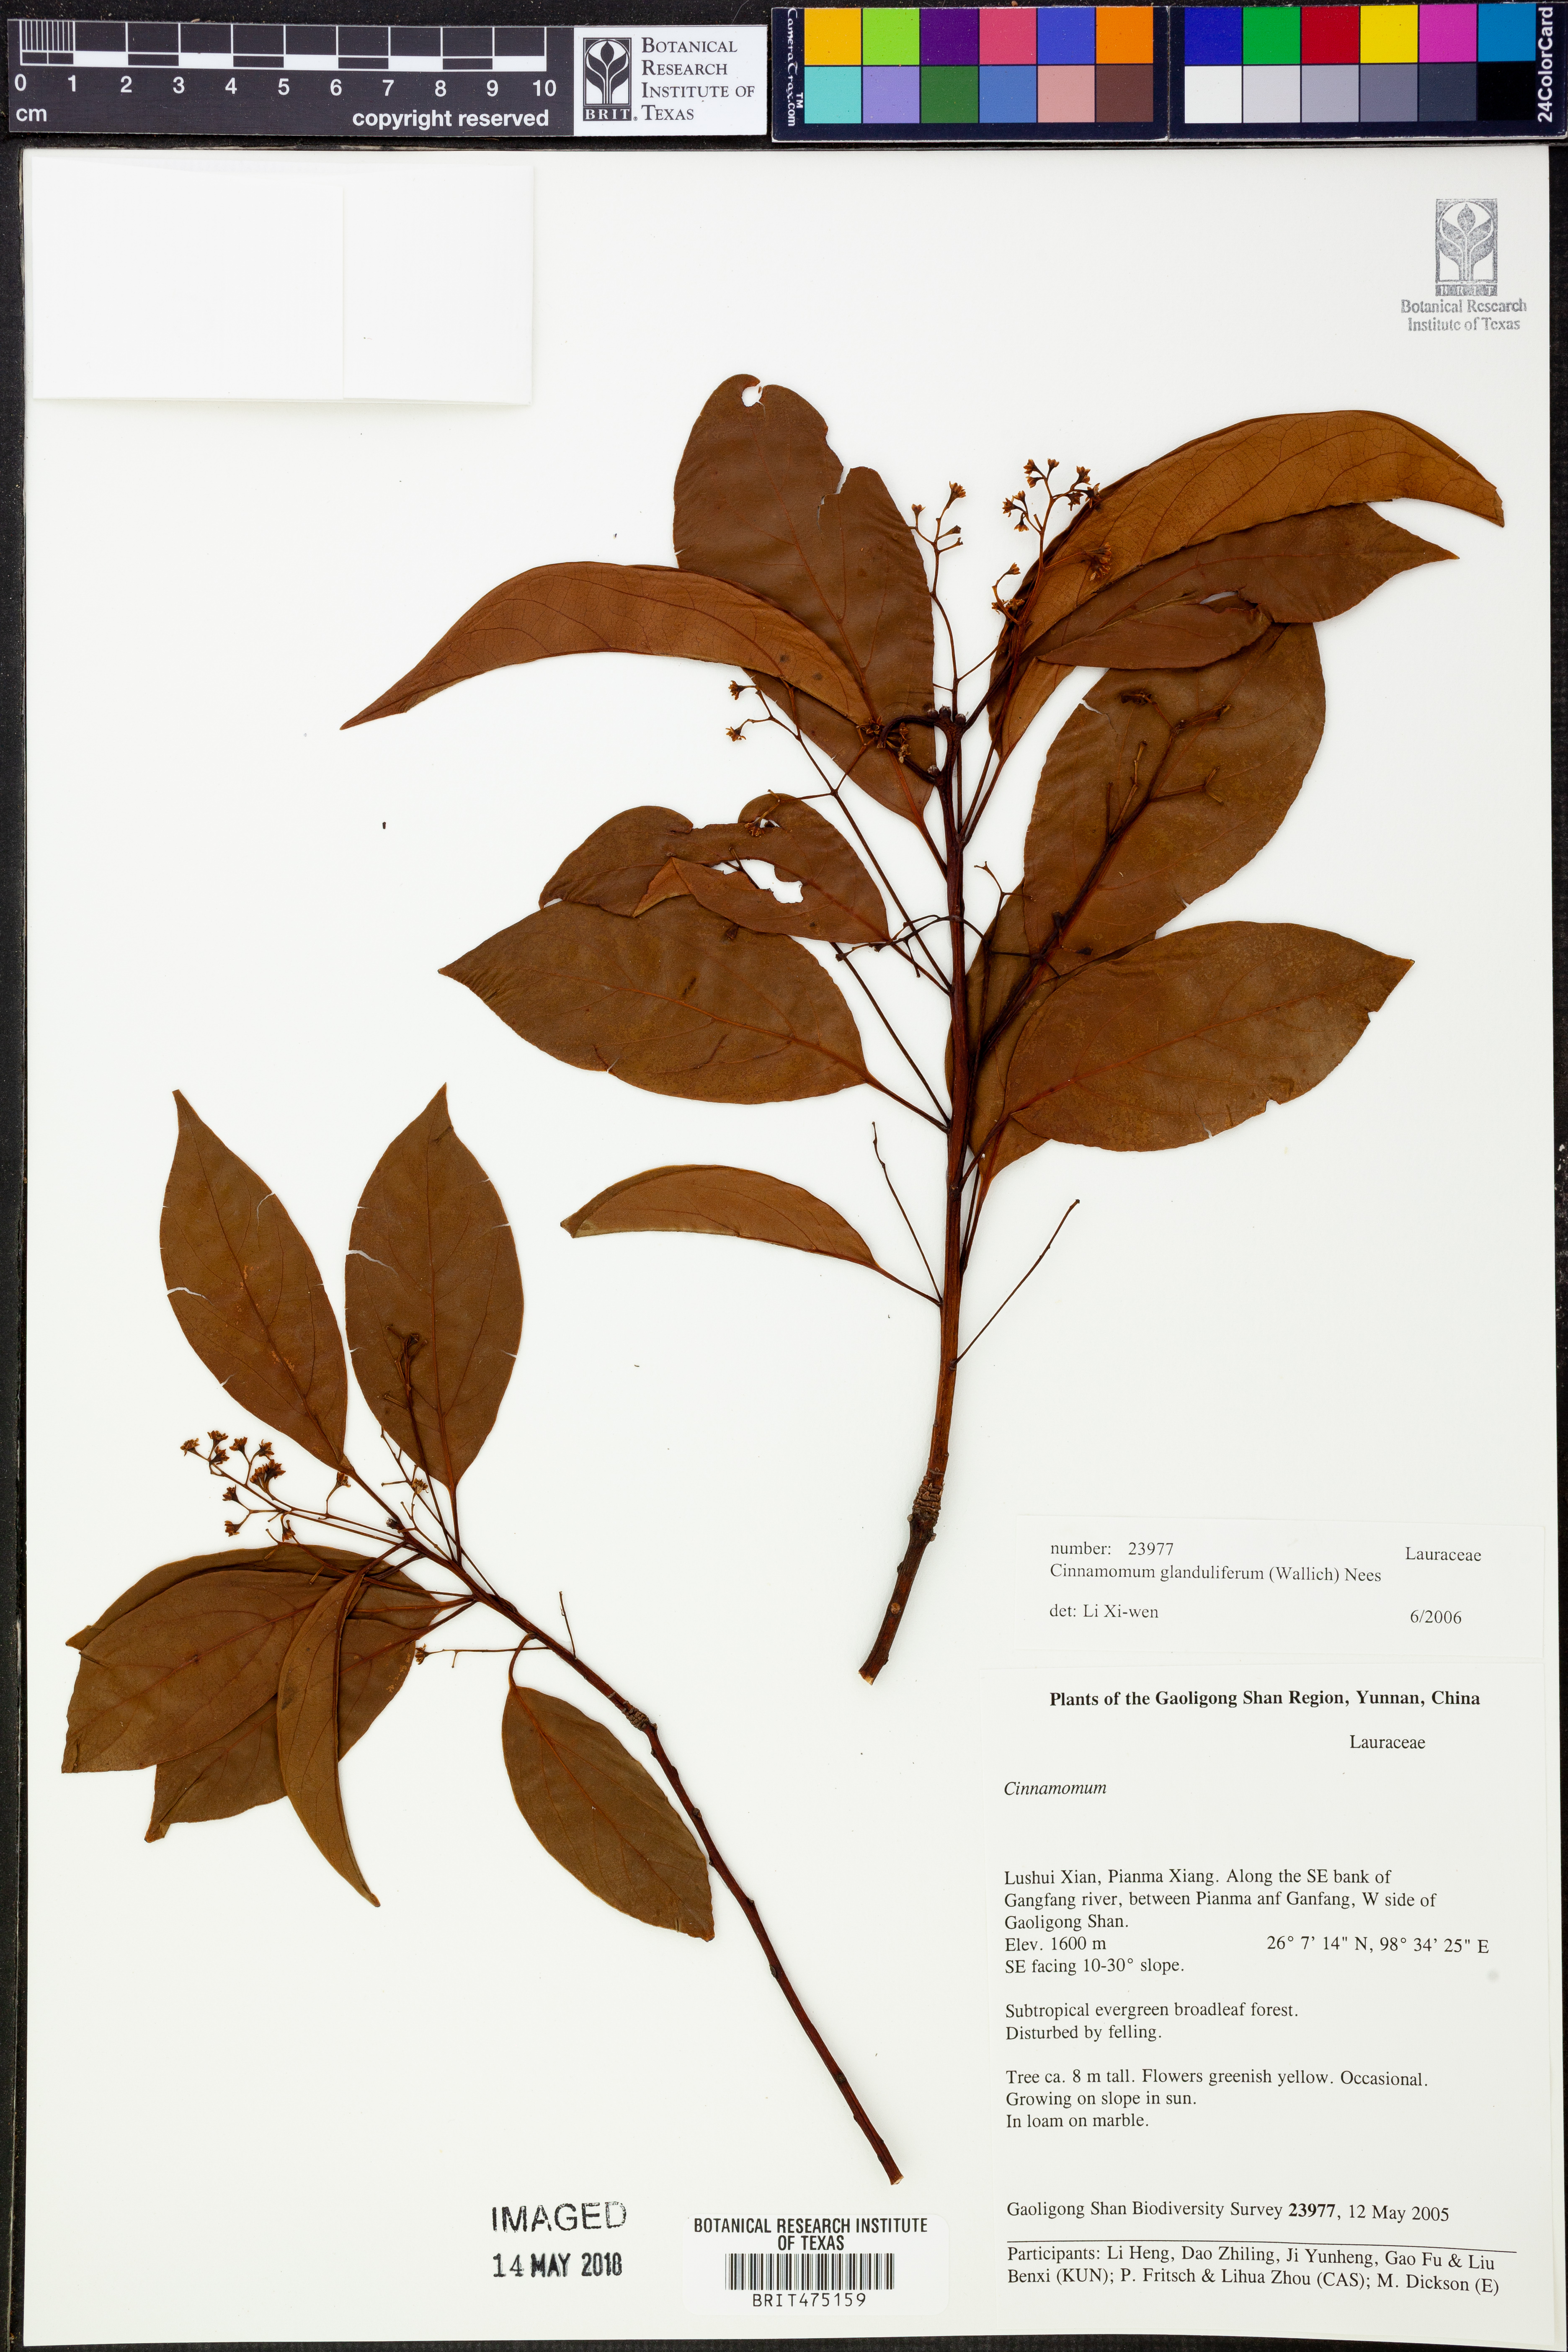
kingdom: Plantae
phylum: Tracheophyta
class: Magnoliopsida
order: Laurales
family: Lauraceae
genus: Cinnamomum
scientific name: Cinnamomum glanduliferum
